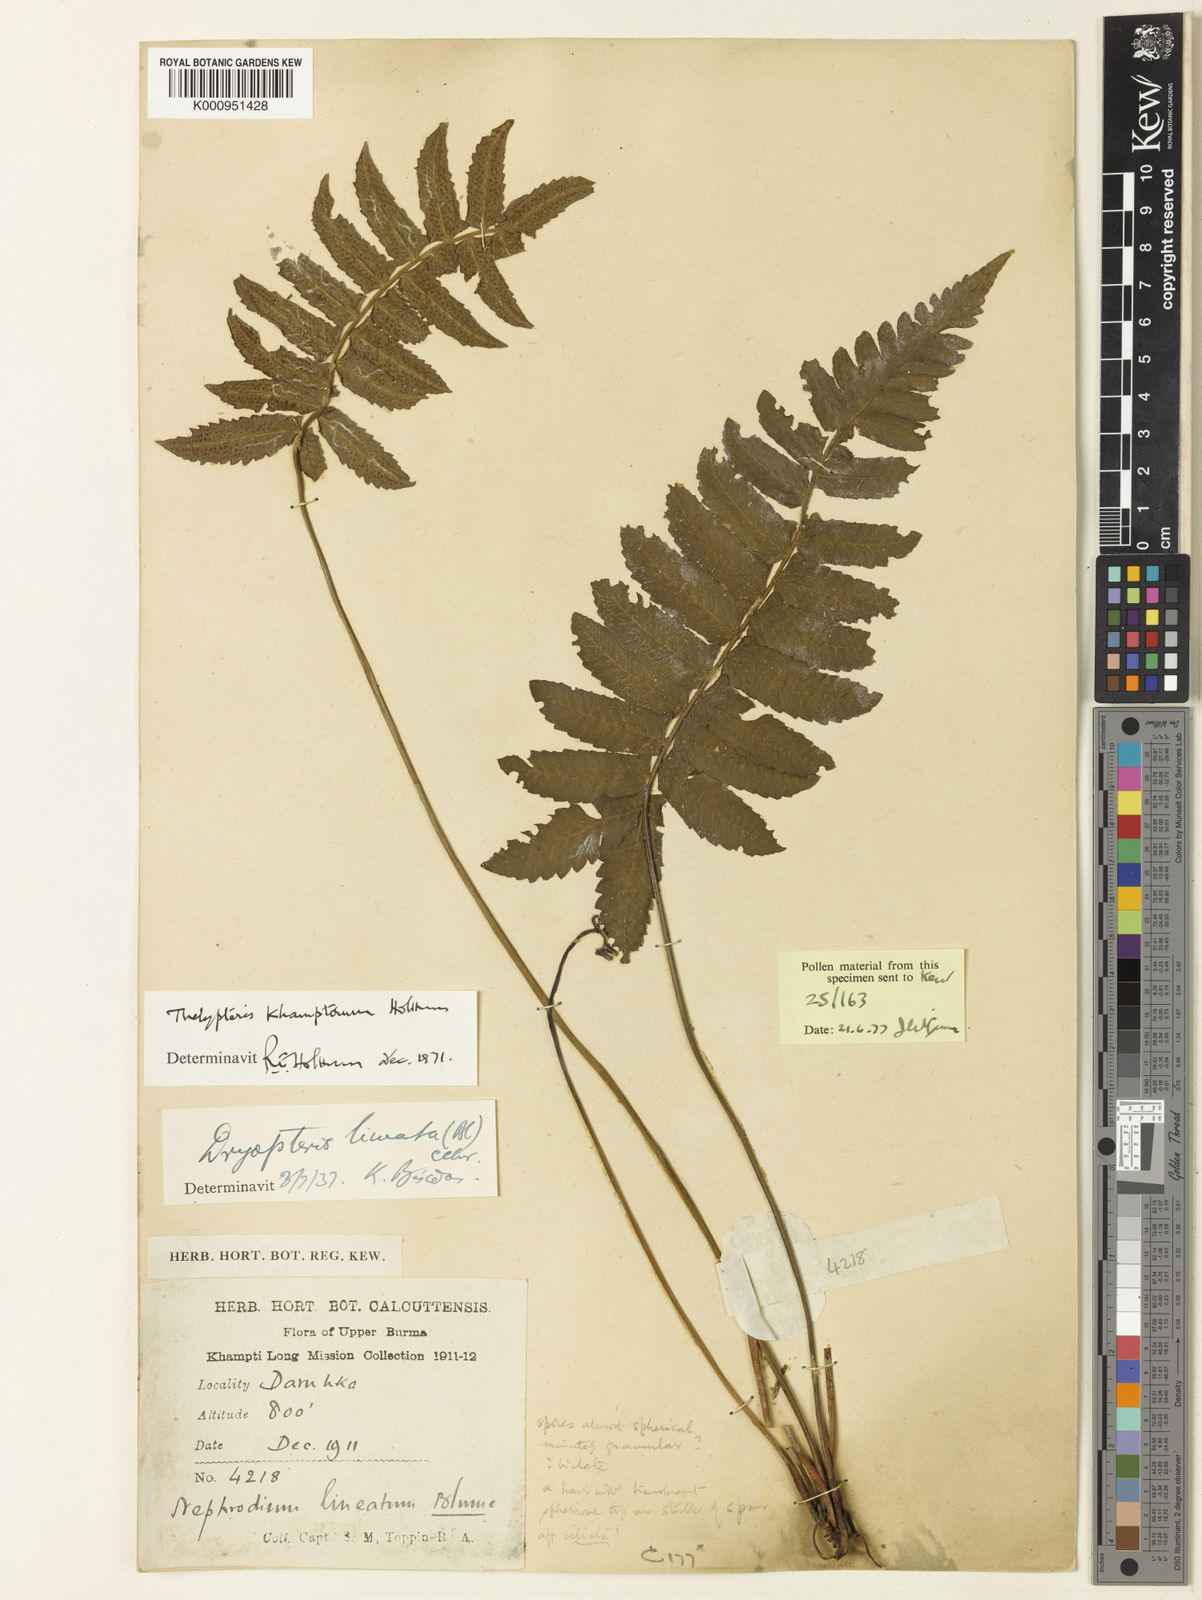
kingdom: Plantae
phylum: Tracheophyta
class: Polypodiopsida
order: Polypodiales
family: Thelypteridaceae
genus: Trigonospora
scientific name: Trigonospora khamptorum
